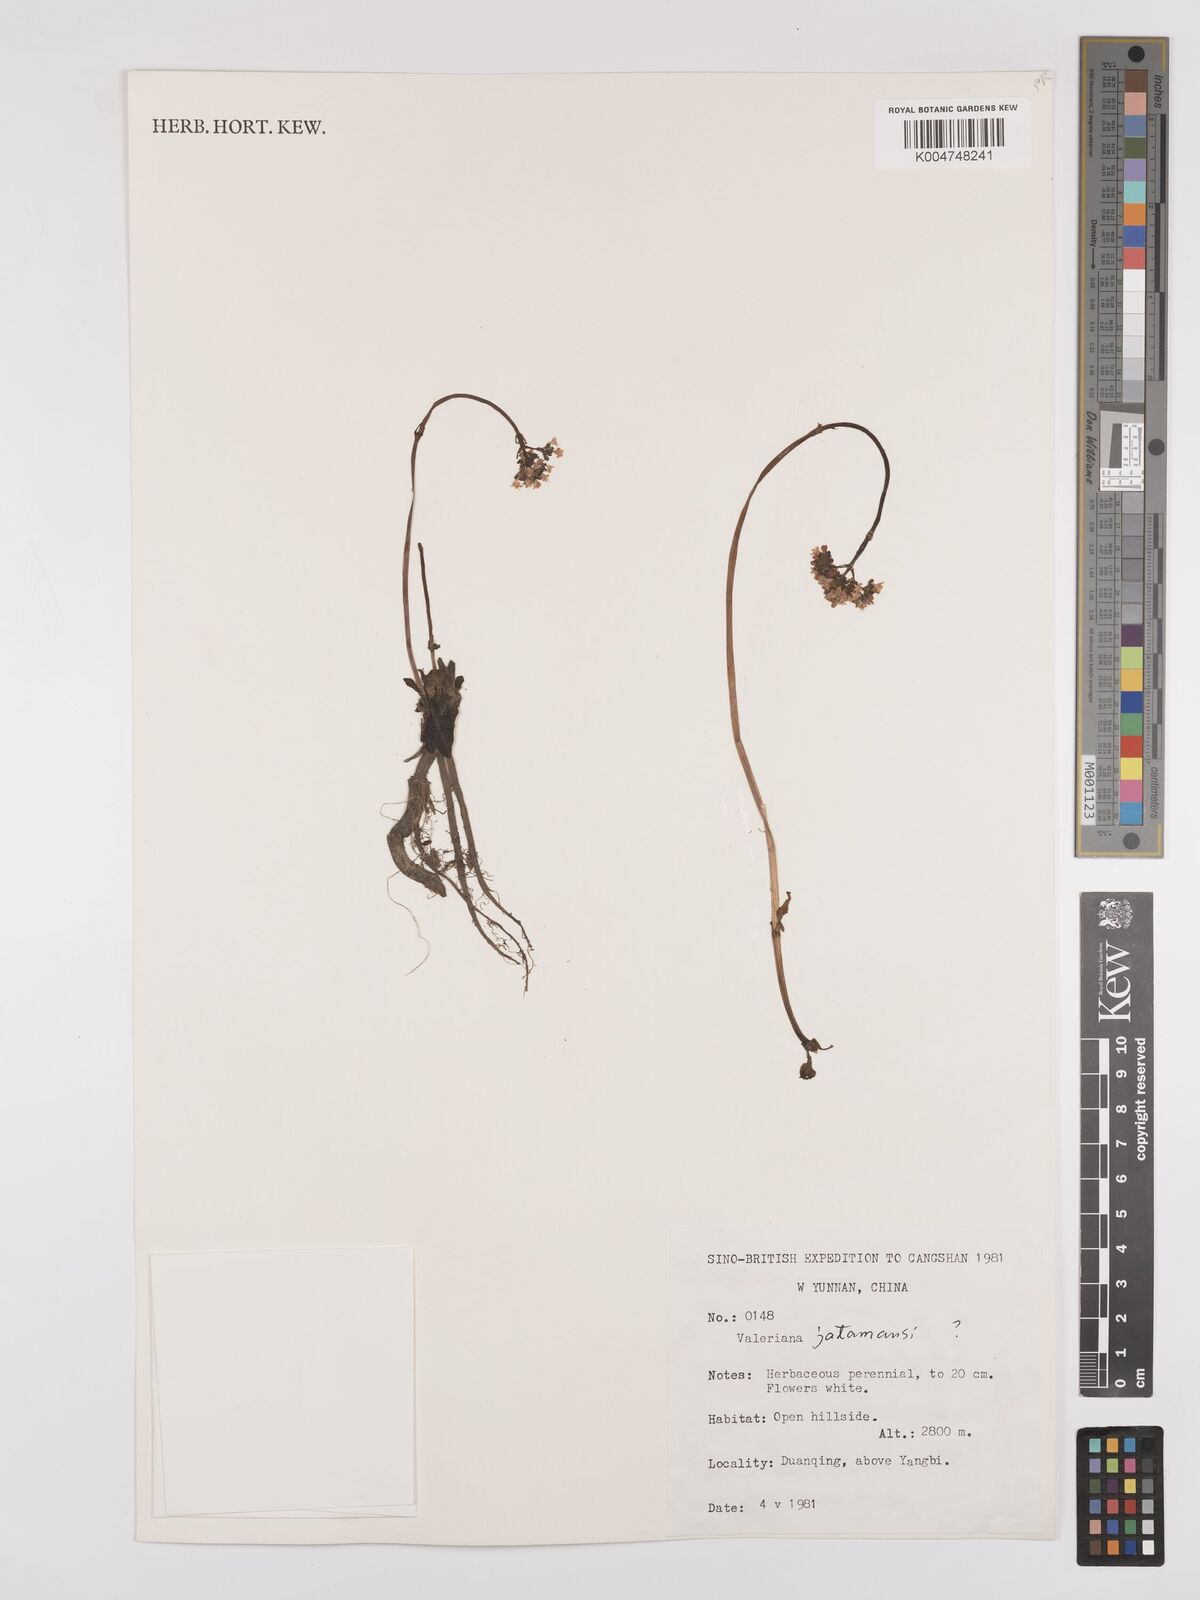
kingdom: Plantae
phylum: Tracheophyta
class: Magnoliopsida
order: Dipsacales
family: Caprifoliaceae
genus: Valeriana
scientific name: Valeriana
